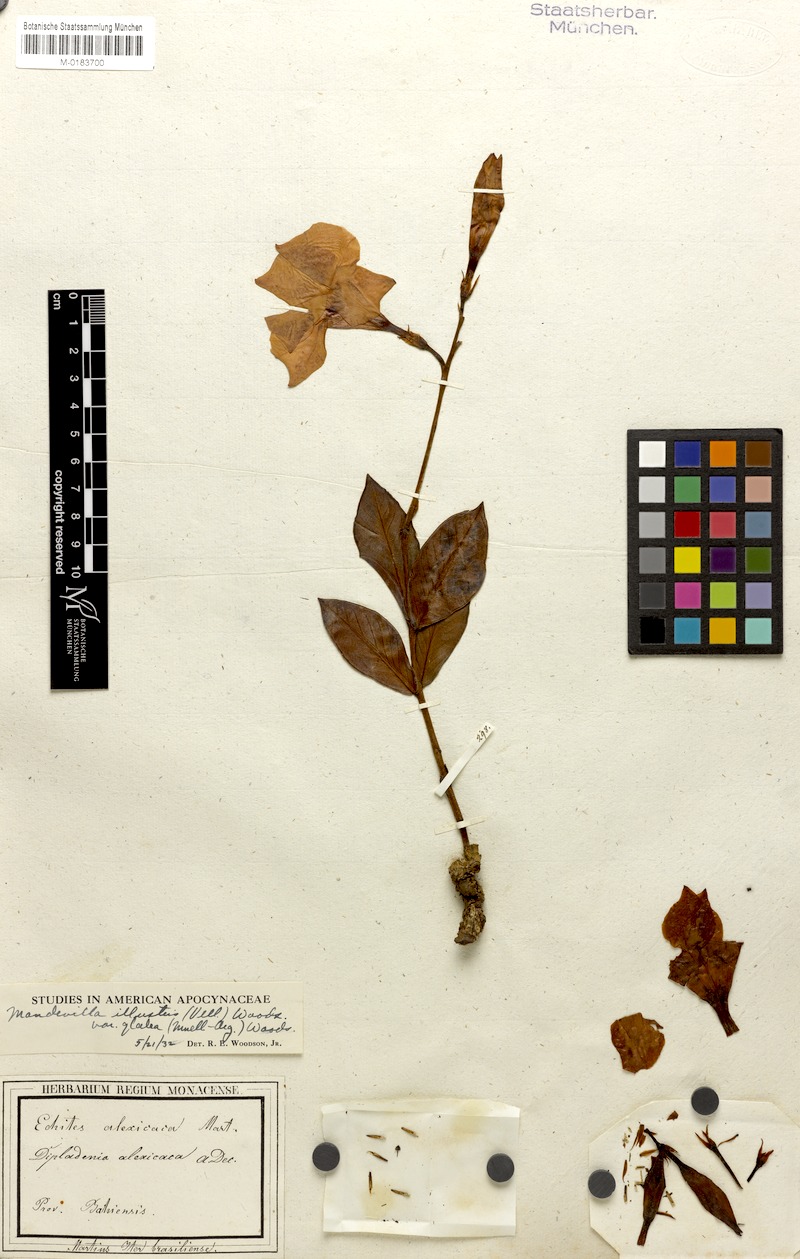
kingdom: Plantae
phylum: Tracheophyta
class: Magnoliopsida
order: Gentianales
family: Apocynaceae
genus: Mandevilla
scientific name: Mandevilla illustris
